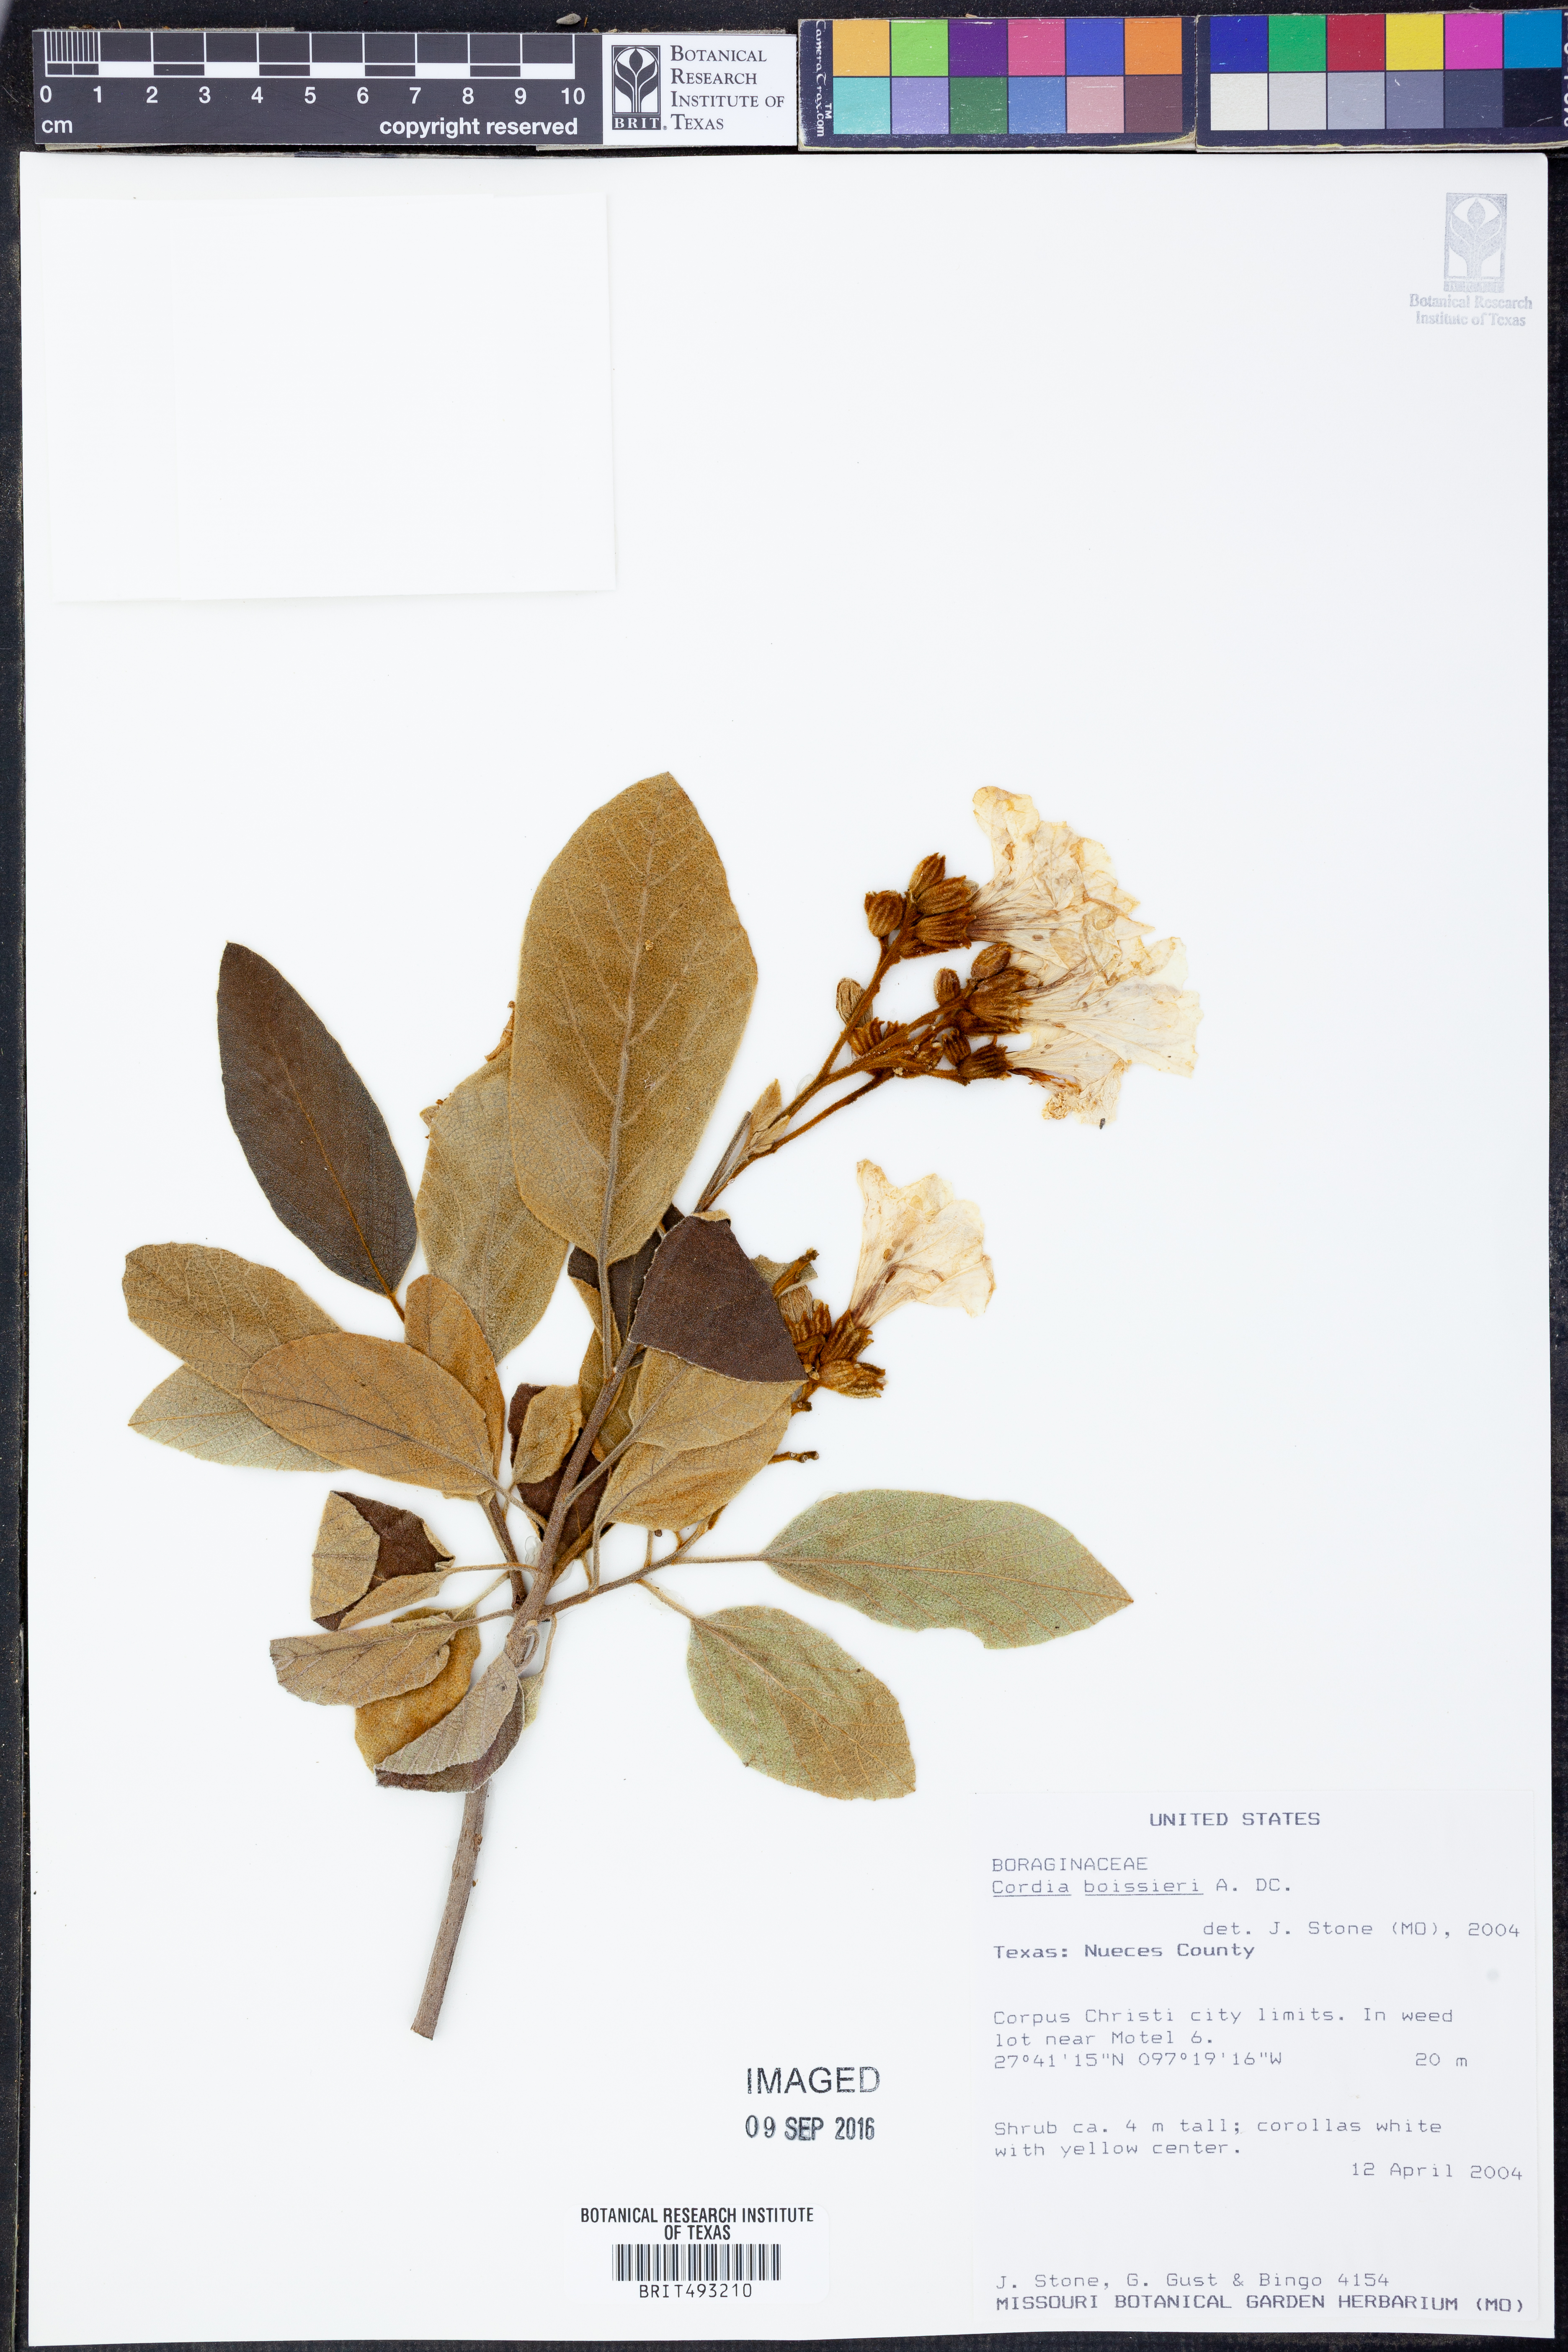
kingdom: Plantae
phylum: Tracheophyta
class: Magnoliopsida
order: Boraginales
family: Cordiaceae
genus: Cordia
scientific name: Cordia boissieri
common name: Mexican-olive
